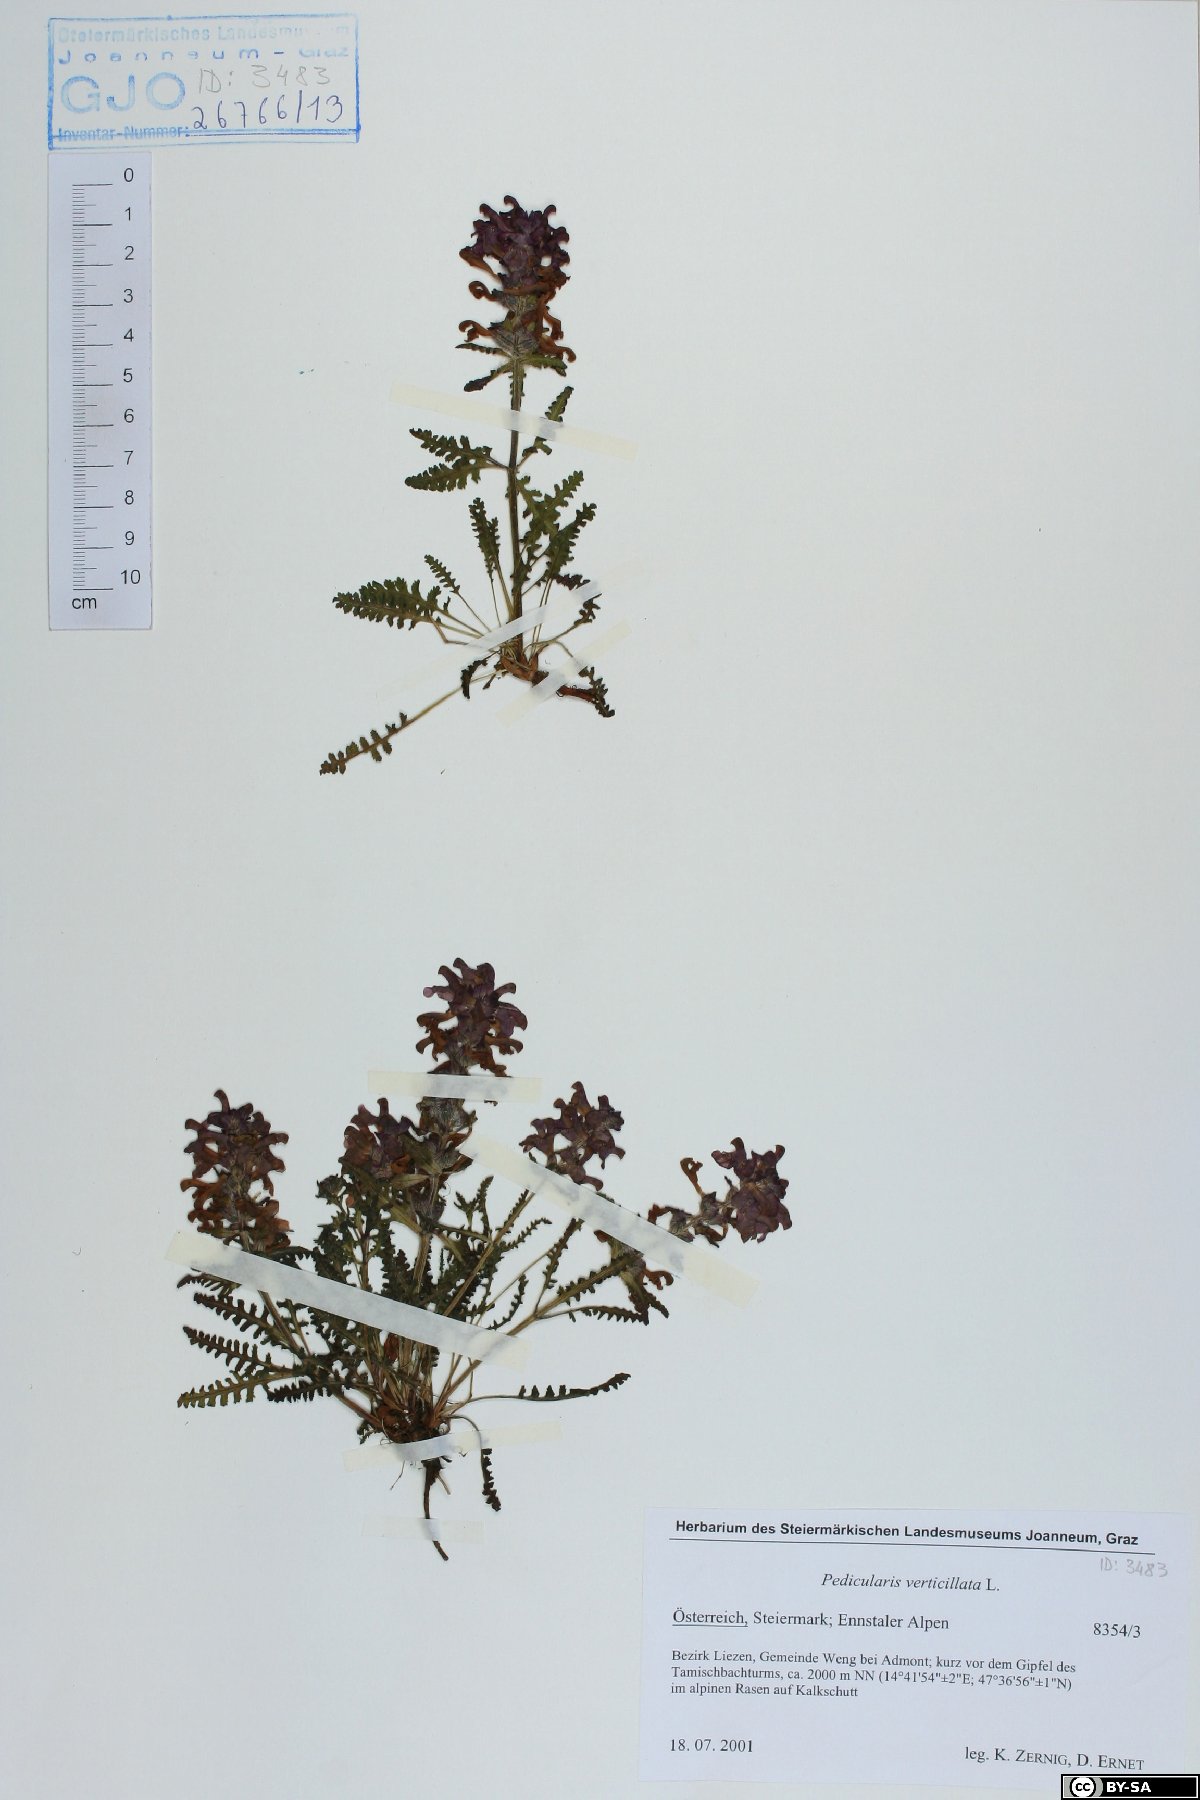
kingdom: Plantae
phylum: Tracheophyta
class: Magnoliopsida
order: Lamiales
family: Orobanchaceae
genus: Pedicularis
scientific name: Pedicularis verticillata
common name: Whorled lousewort
